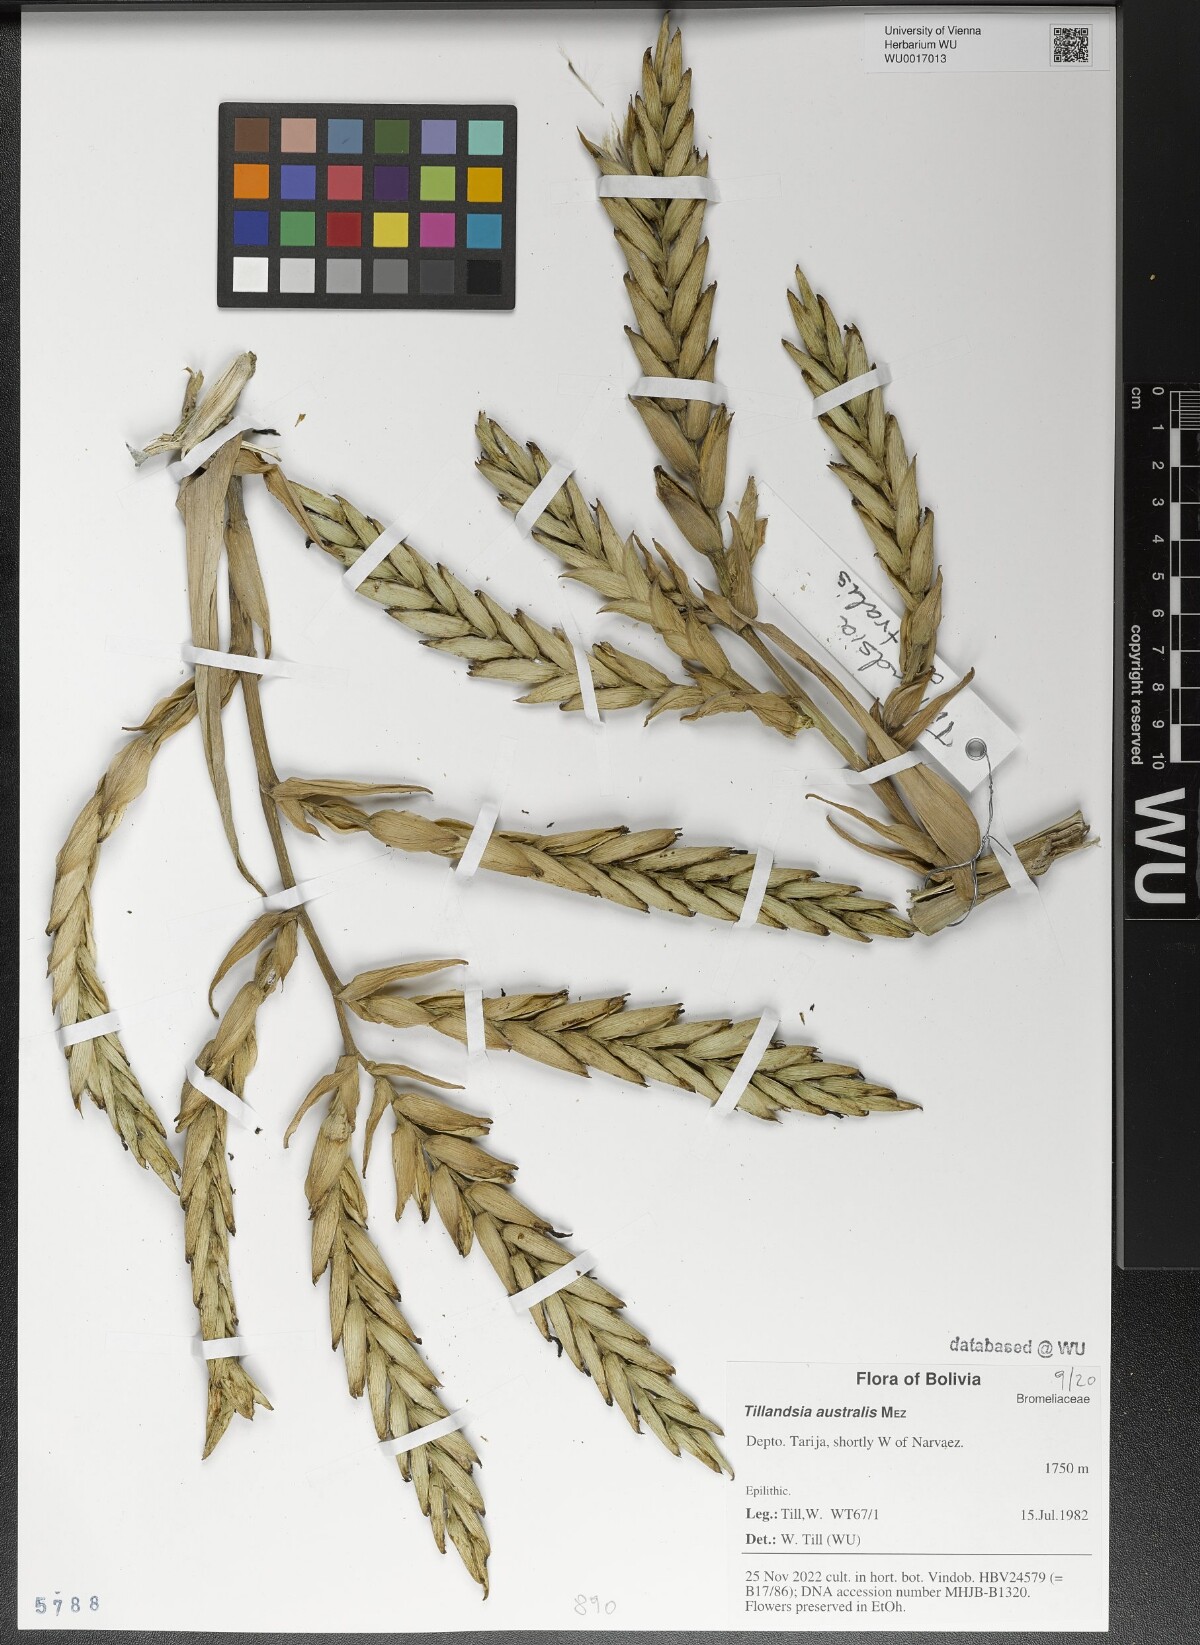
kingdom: Plantae
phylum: Tracheophyta
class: Liliopsida
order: Poales
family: Bromeliaceae
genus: Tillandsia
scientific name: Tillandsia australis
